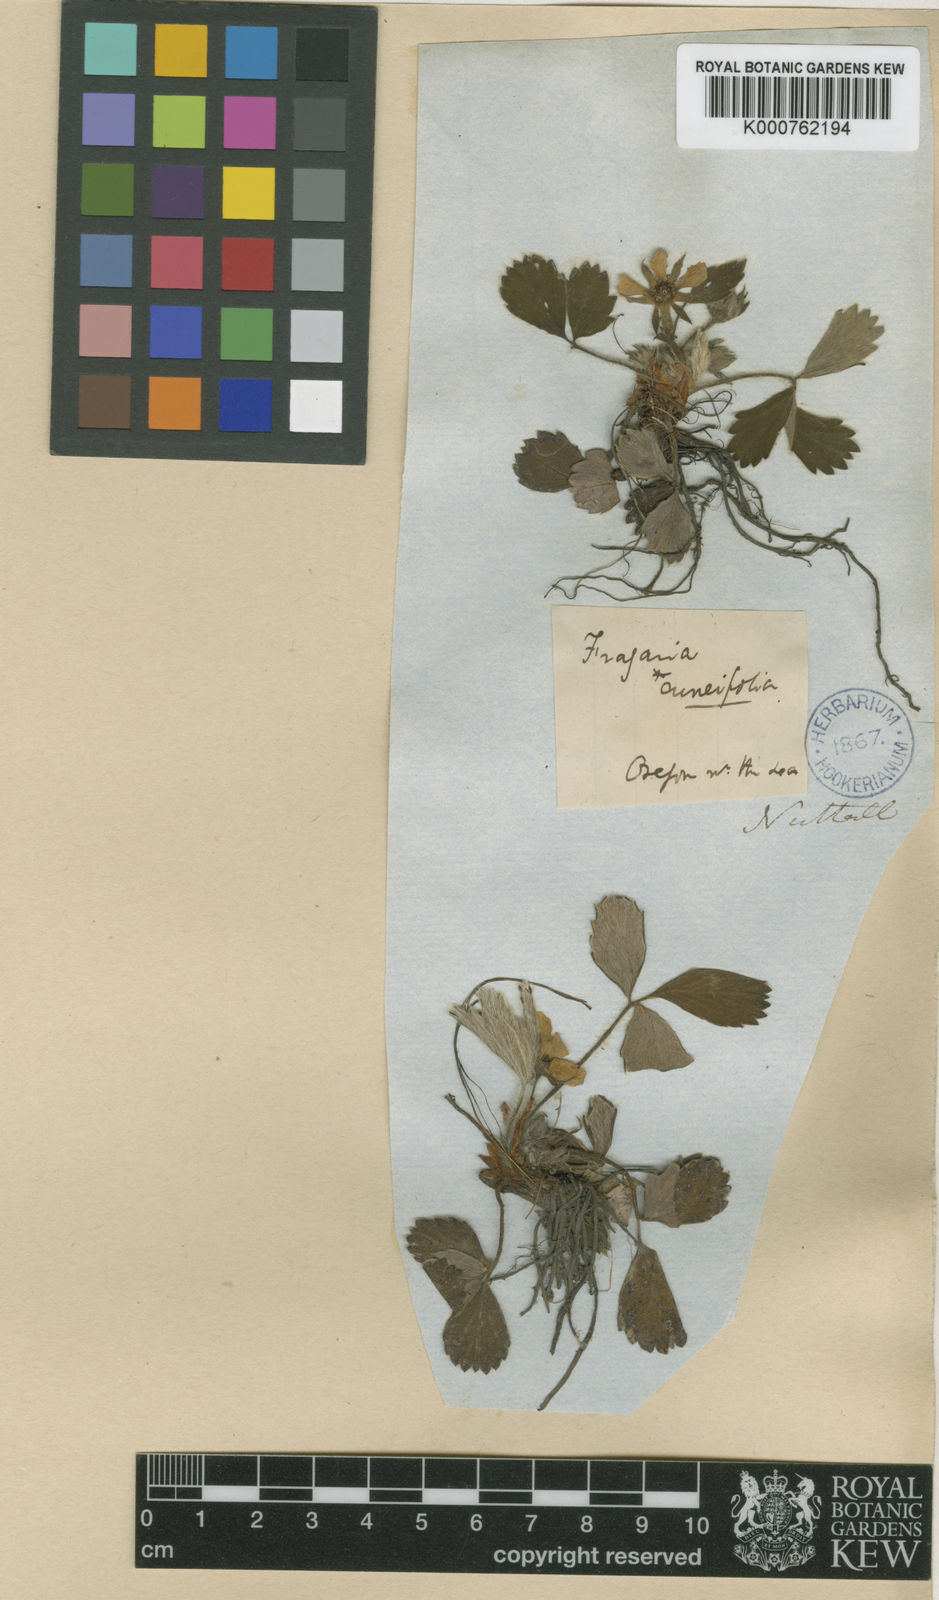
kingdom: Plantae
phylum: Tracheophyta
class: Magnoliopsida
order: Rosales
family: Rosaceae
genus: Fragaria
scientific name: Fragaria ananassa
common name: Garden strawberry
